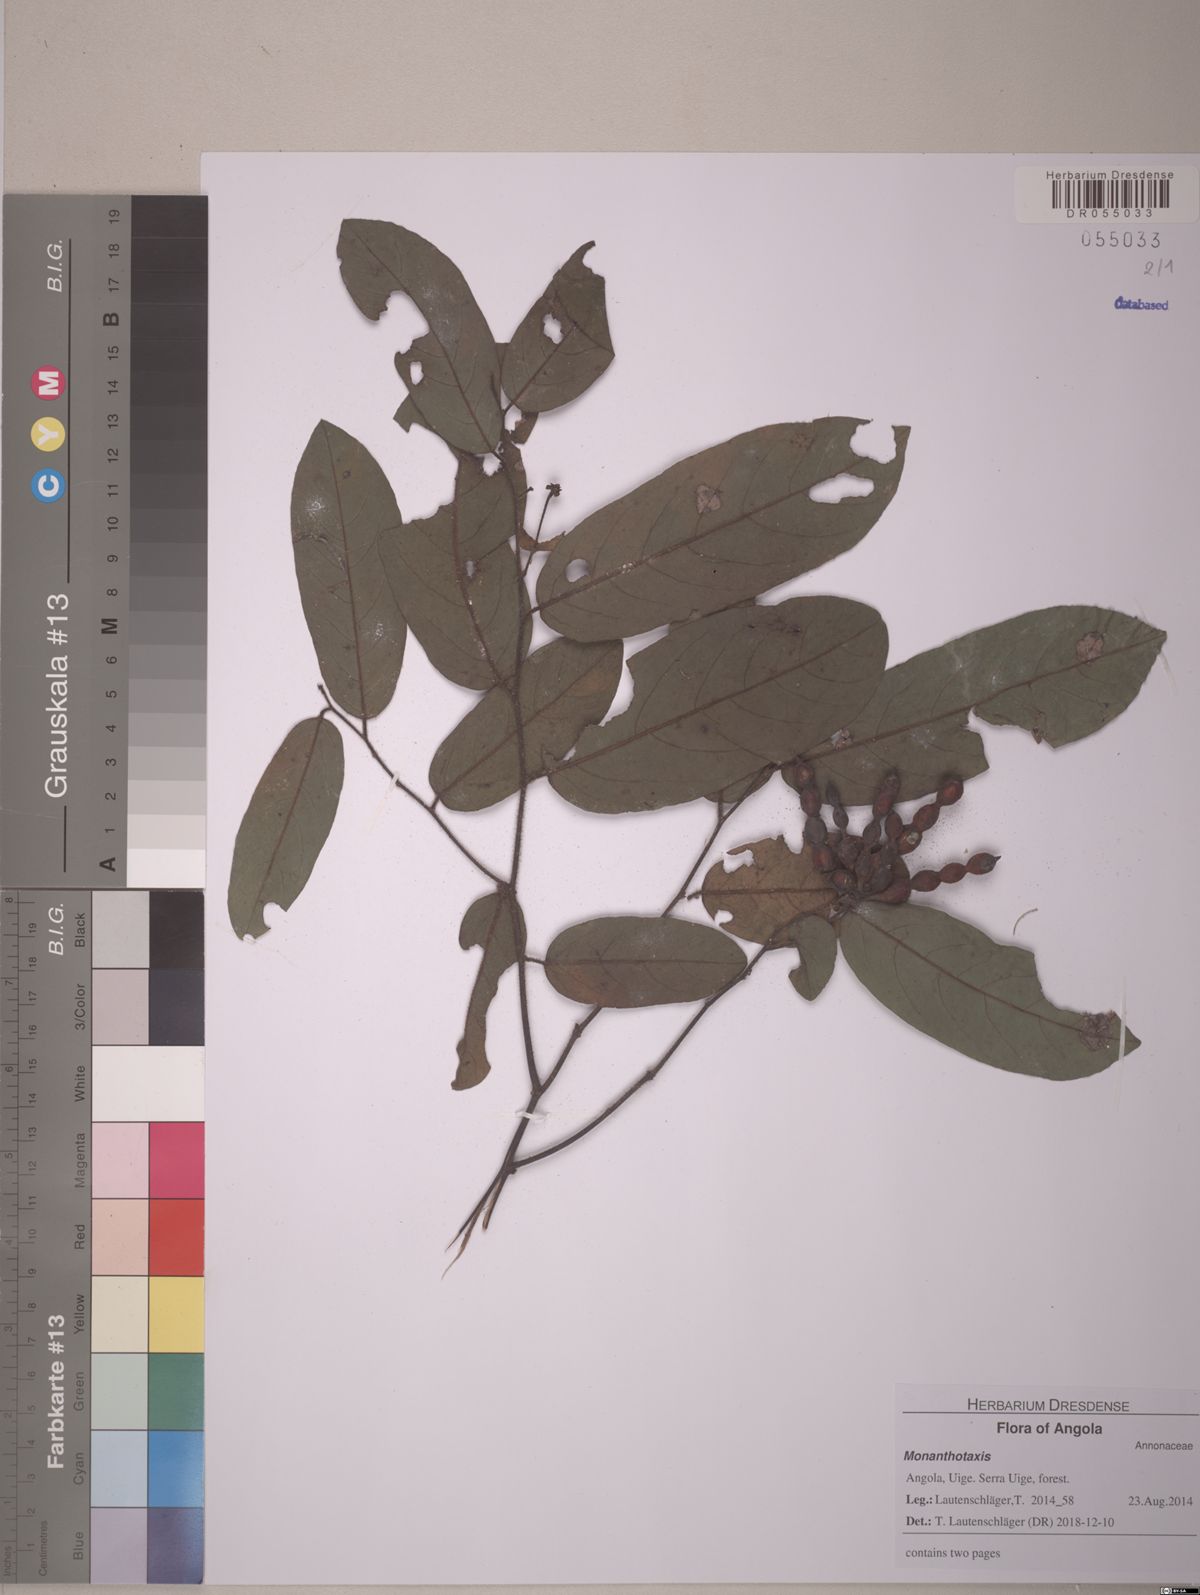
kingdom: Plantae
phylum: Tracheophyta
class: Magnoliopsida
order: Magnoliales
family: Annonaceae
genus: Monanthotaxis
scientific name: Monanthotaxis gilletii
